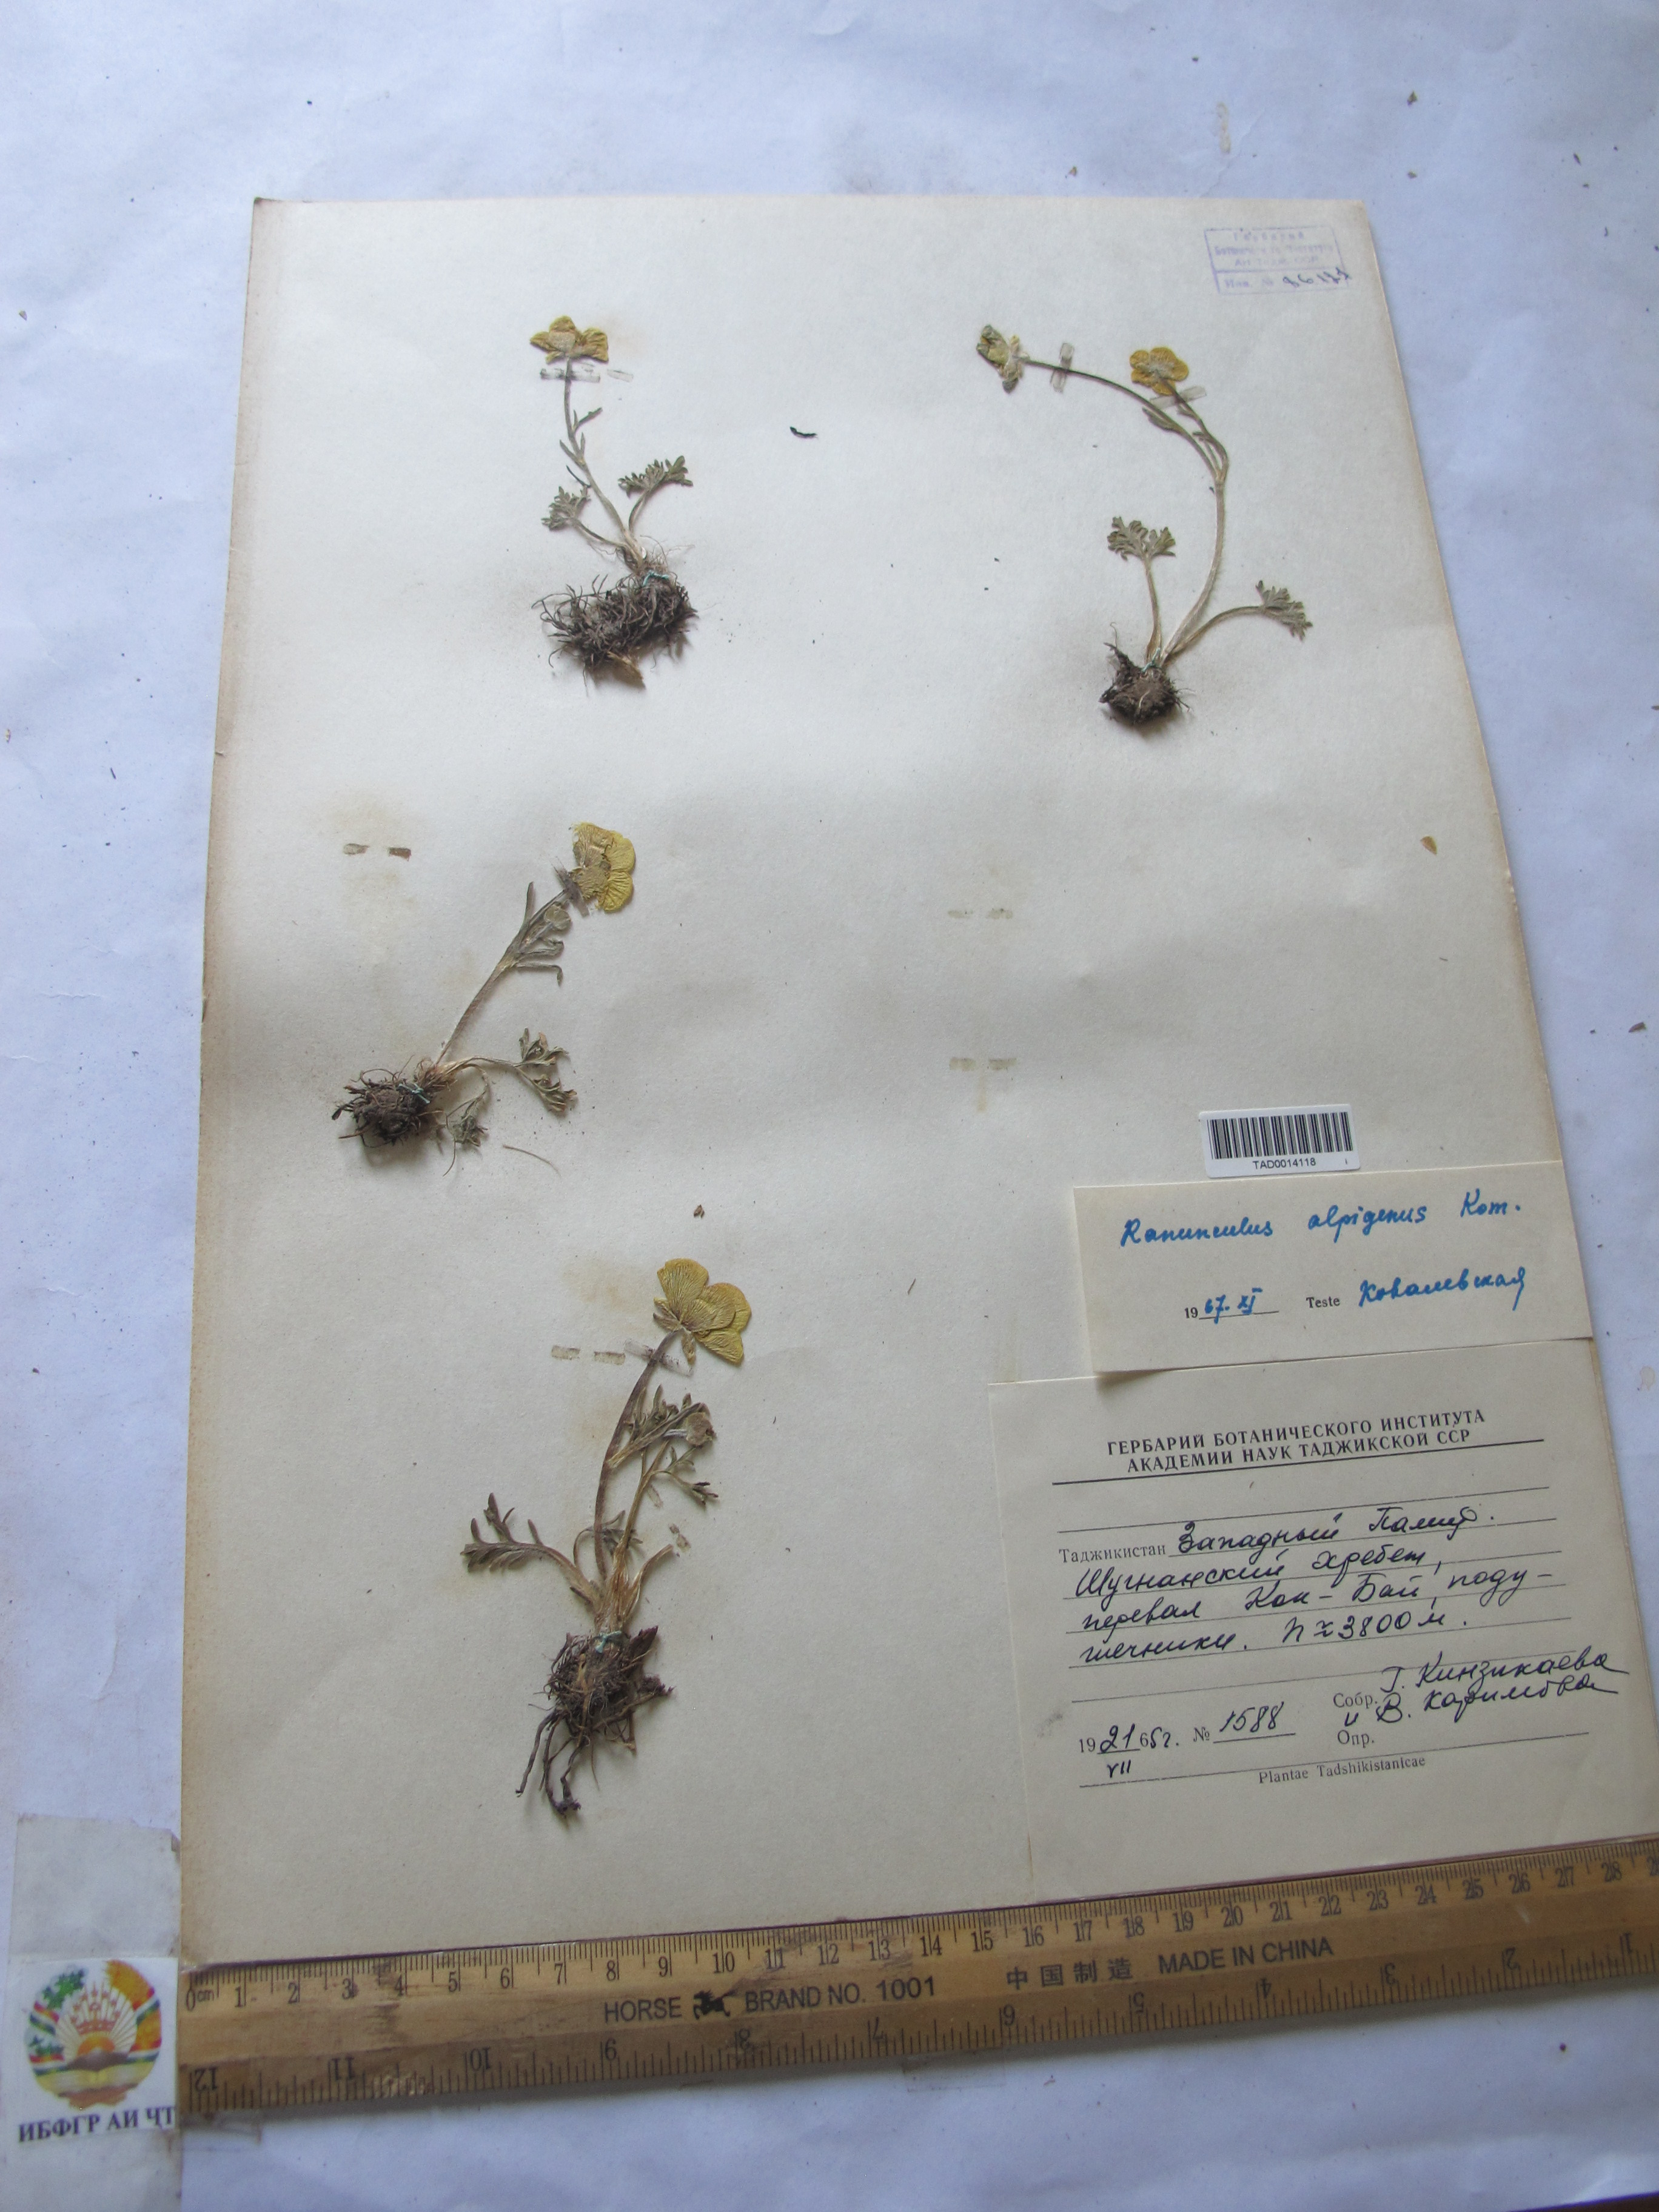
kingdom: Plantae
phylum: Tracheophyta
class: Magnoliopsida
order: Ranunculales
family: Ranunculaceae
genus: Ranunculus
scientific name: Ranunculus alpigenus
